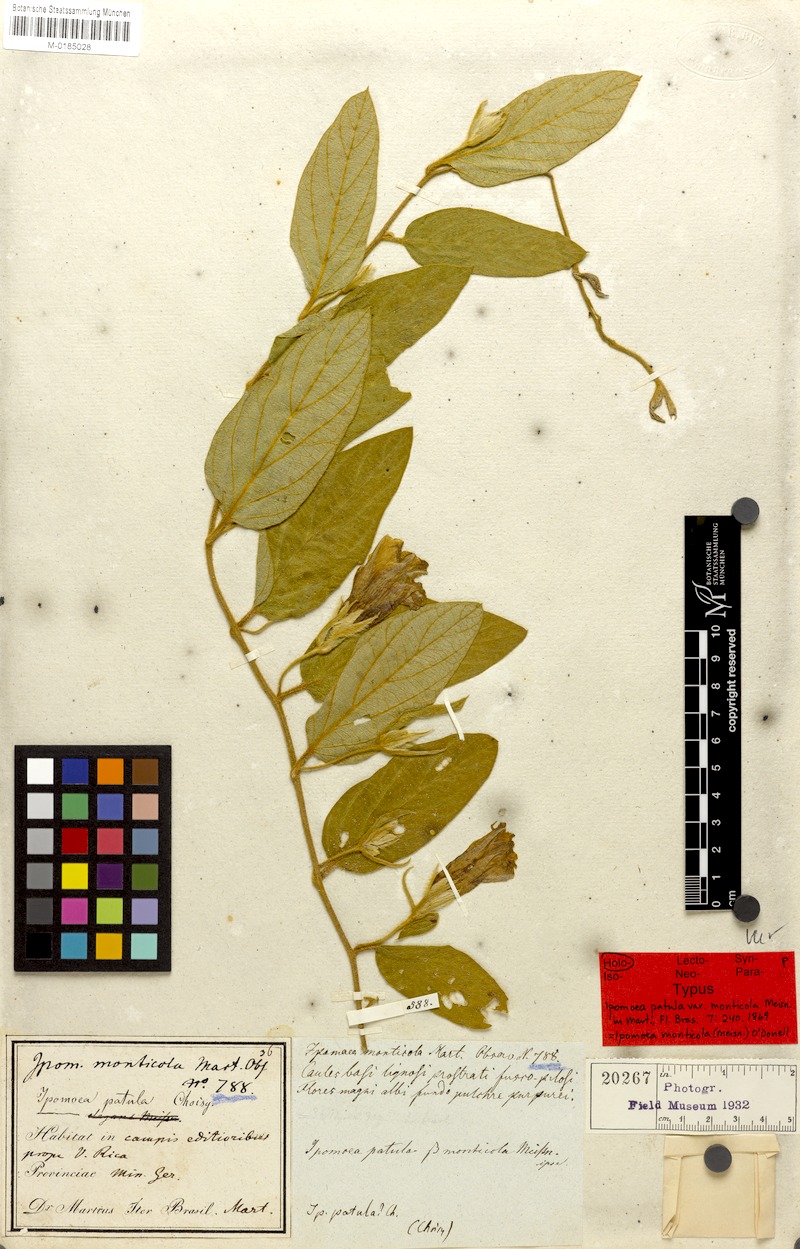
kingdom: Plantae
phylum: Tracheophyta
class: Magnoliopsida
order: Solanales
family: Convolvulaceae
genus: Ipomoea
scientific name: Ipomoea langsdorffii
